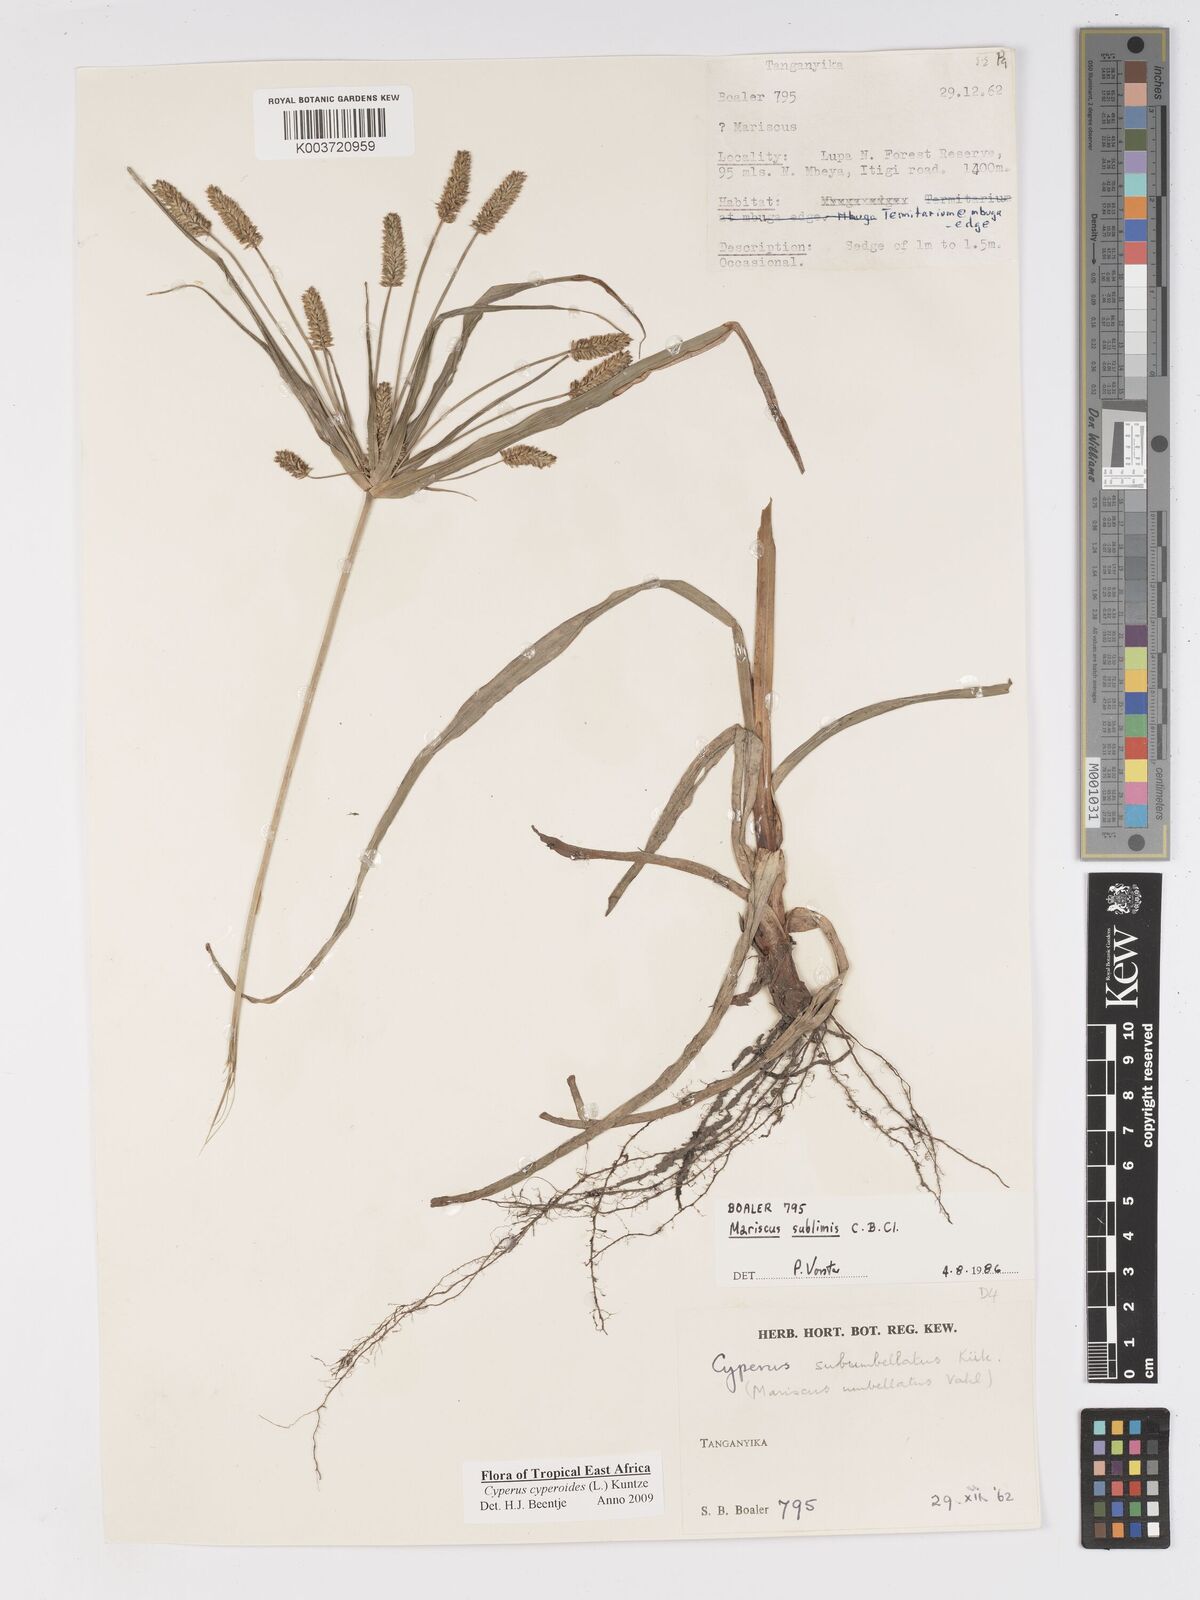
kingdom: Plantae
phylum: Tracheophyta
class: Liliopsida
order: Poales
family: Cyperaceae
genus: Cyperus
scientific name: Cyperus cyperoides
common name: Pacific island flat sedge
